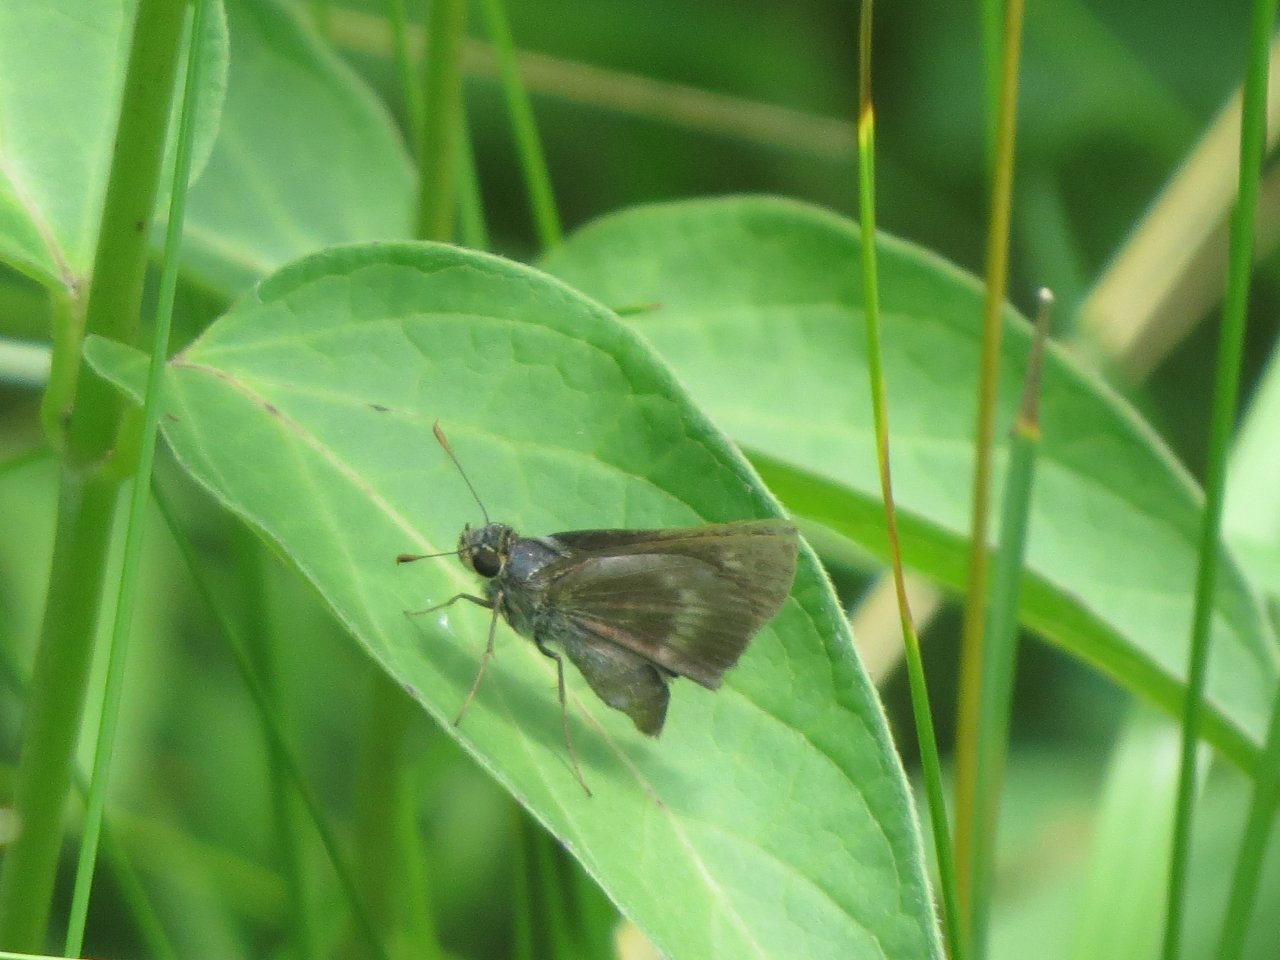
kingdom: Animalia
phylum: Arthropoda
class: Insecta
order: Lepidoptera
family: Hesperiidae
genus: Polites
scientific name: Polites egeremet
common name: Northern Broken-Dash
